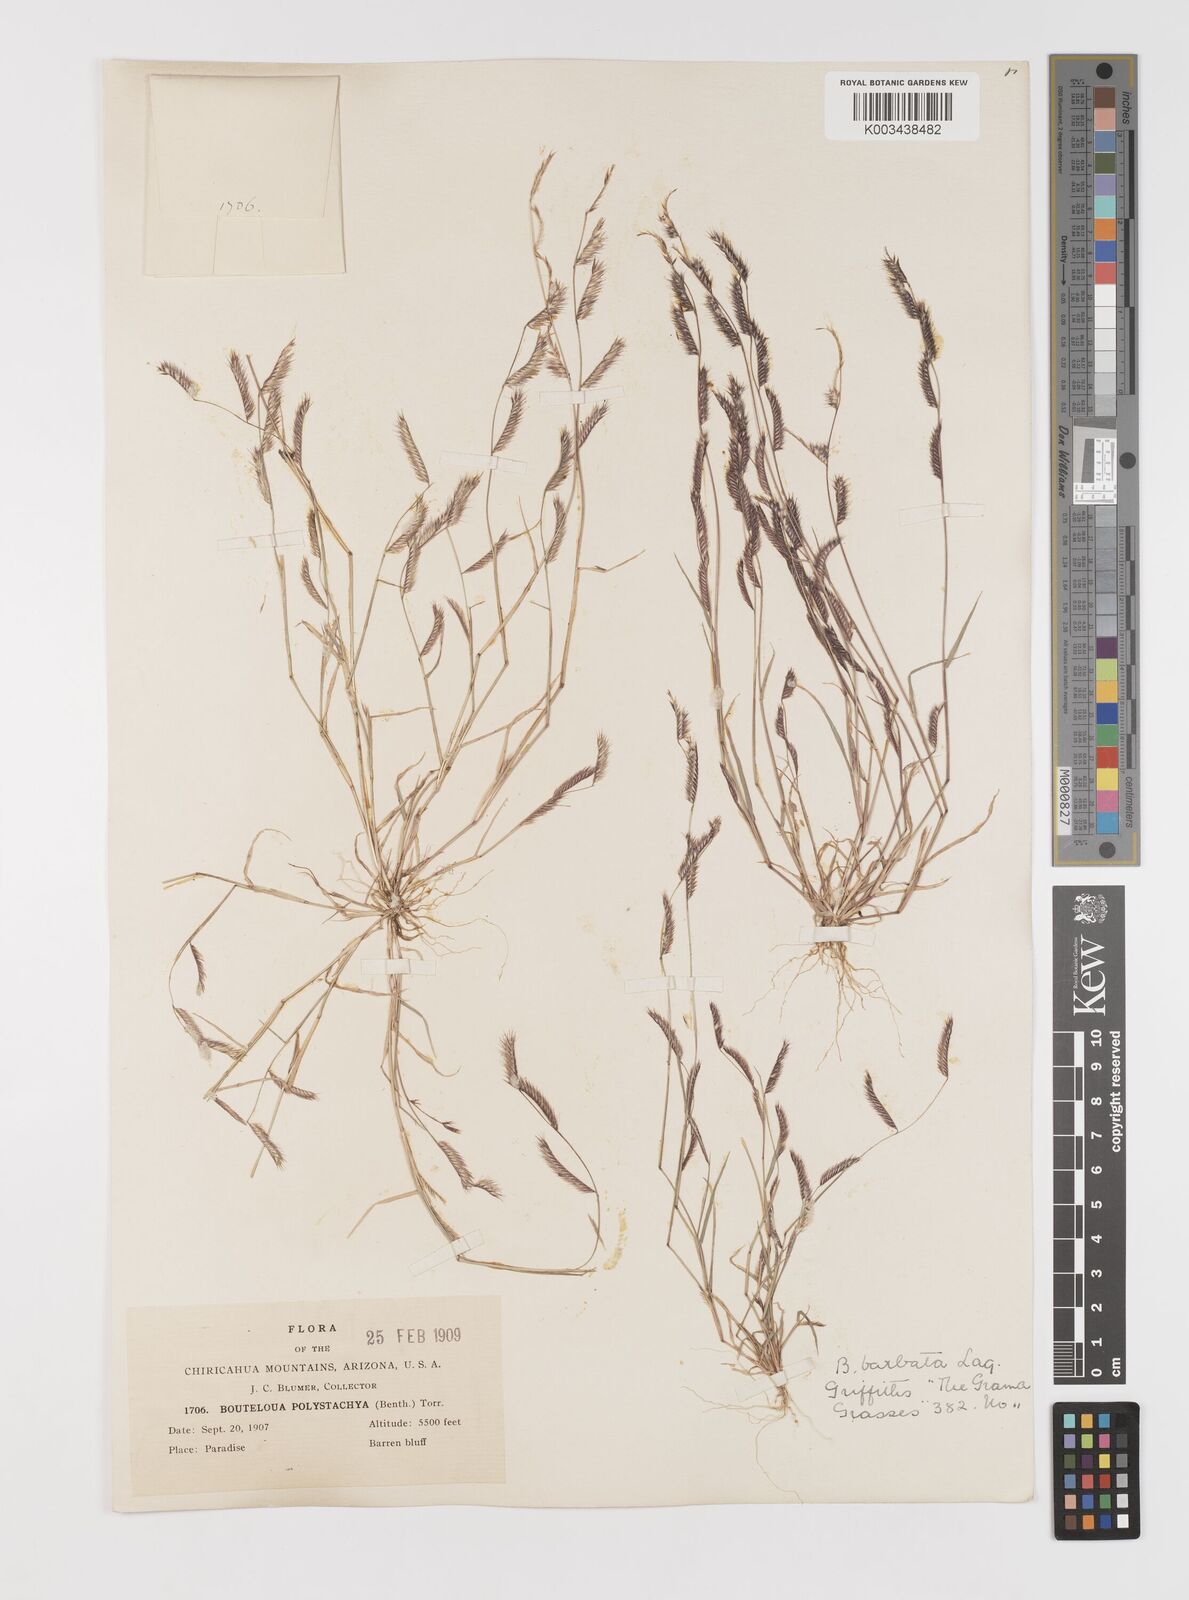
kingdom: Plantae
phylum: Tracheophyta
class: Liliopsida
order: Poales
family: Poaceae
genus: Bouteloua
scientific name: Bouteloua
